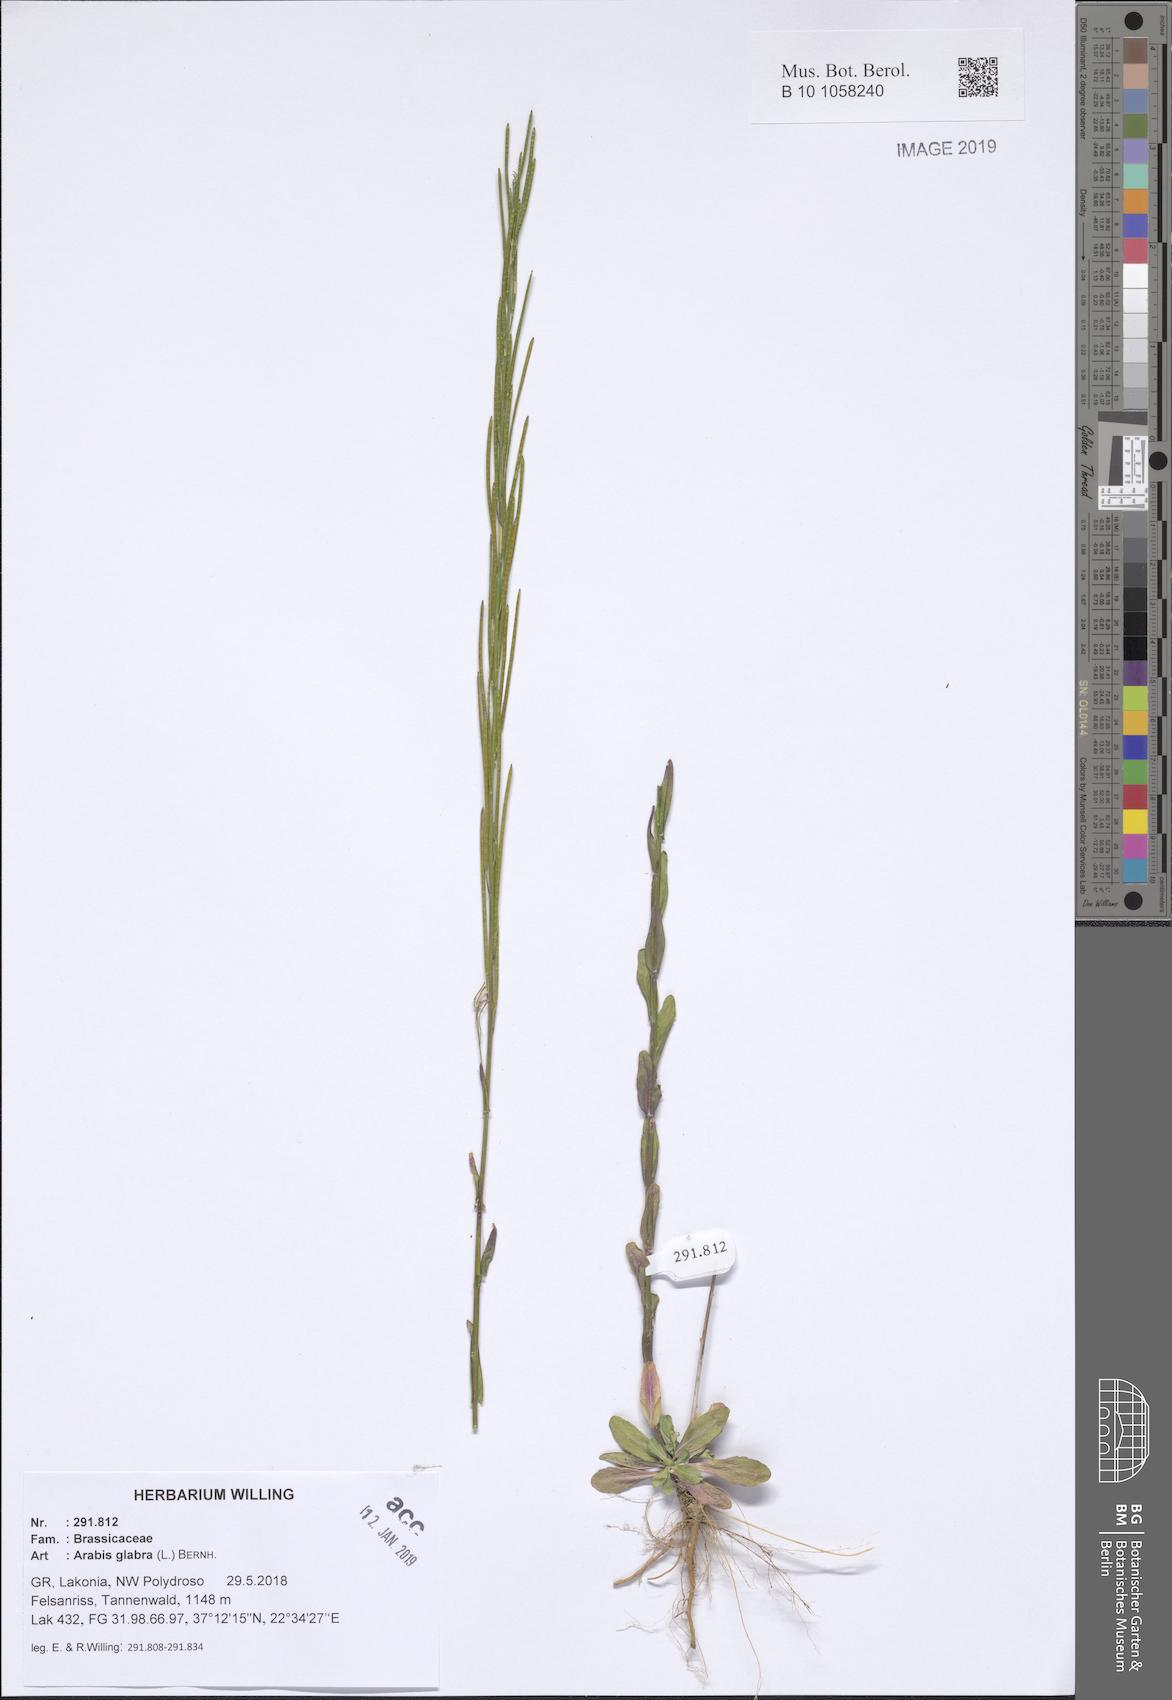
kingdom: Plantae
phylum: Tracheophyta
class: Magnoliopsida
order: Brassicales
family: Brassicaceae
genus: Turritis
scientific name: Turritis glabra
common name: Tower rockcress
